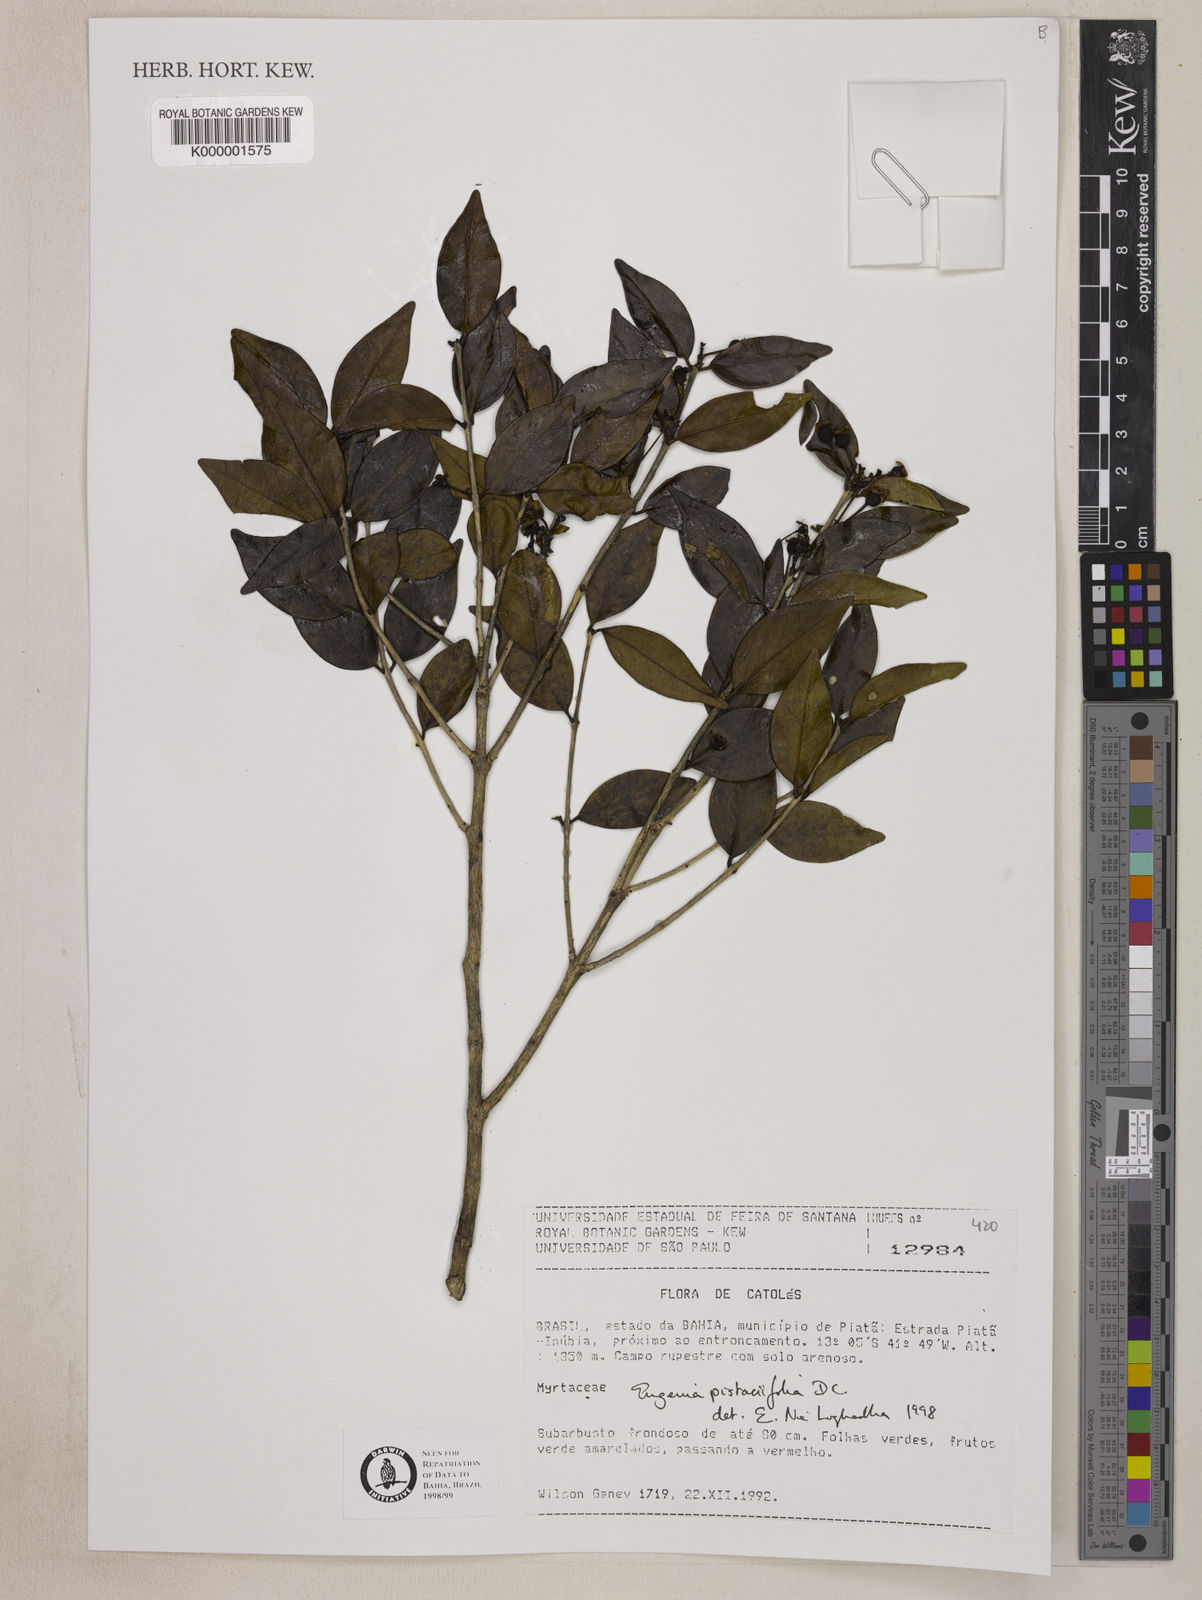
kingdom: Plantae
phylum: Tracheophyta
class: Magnoliopsida
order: Myrtales
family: Myrtaceae
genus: Eugenia
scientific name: Eugenia pistaciifolia
